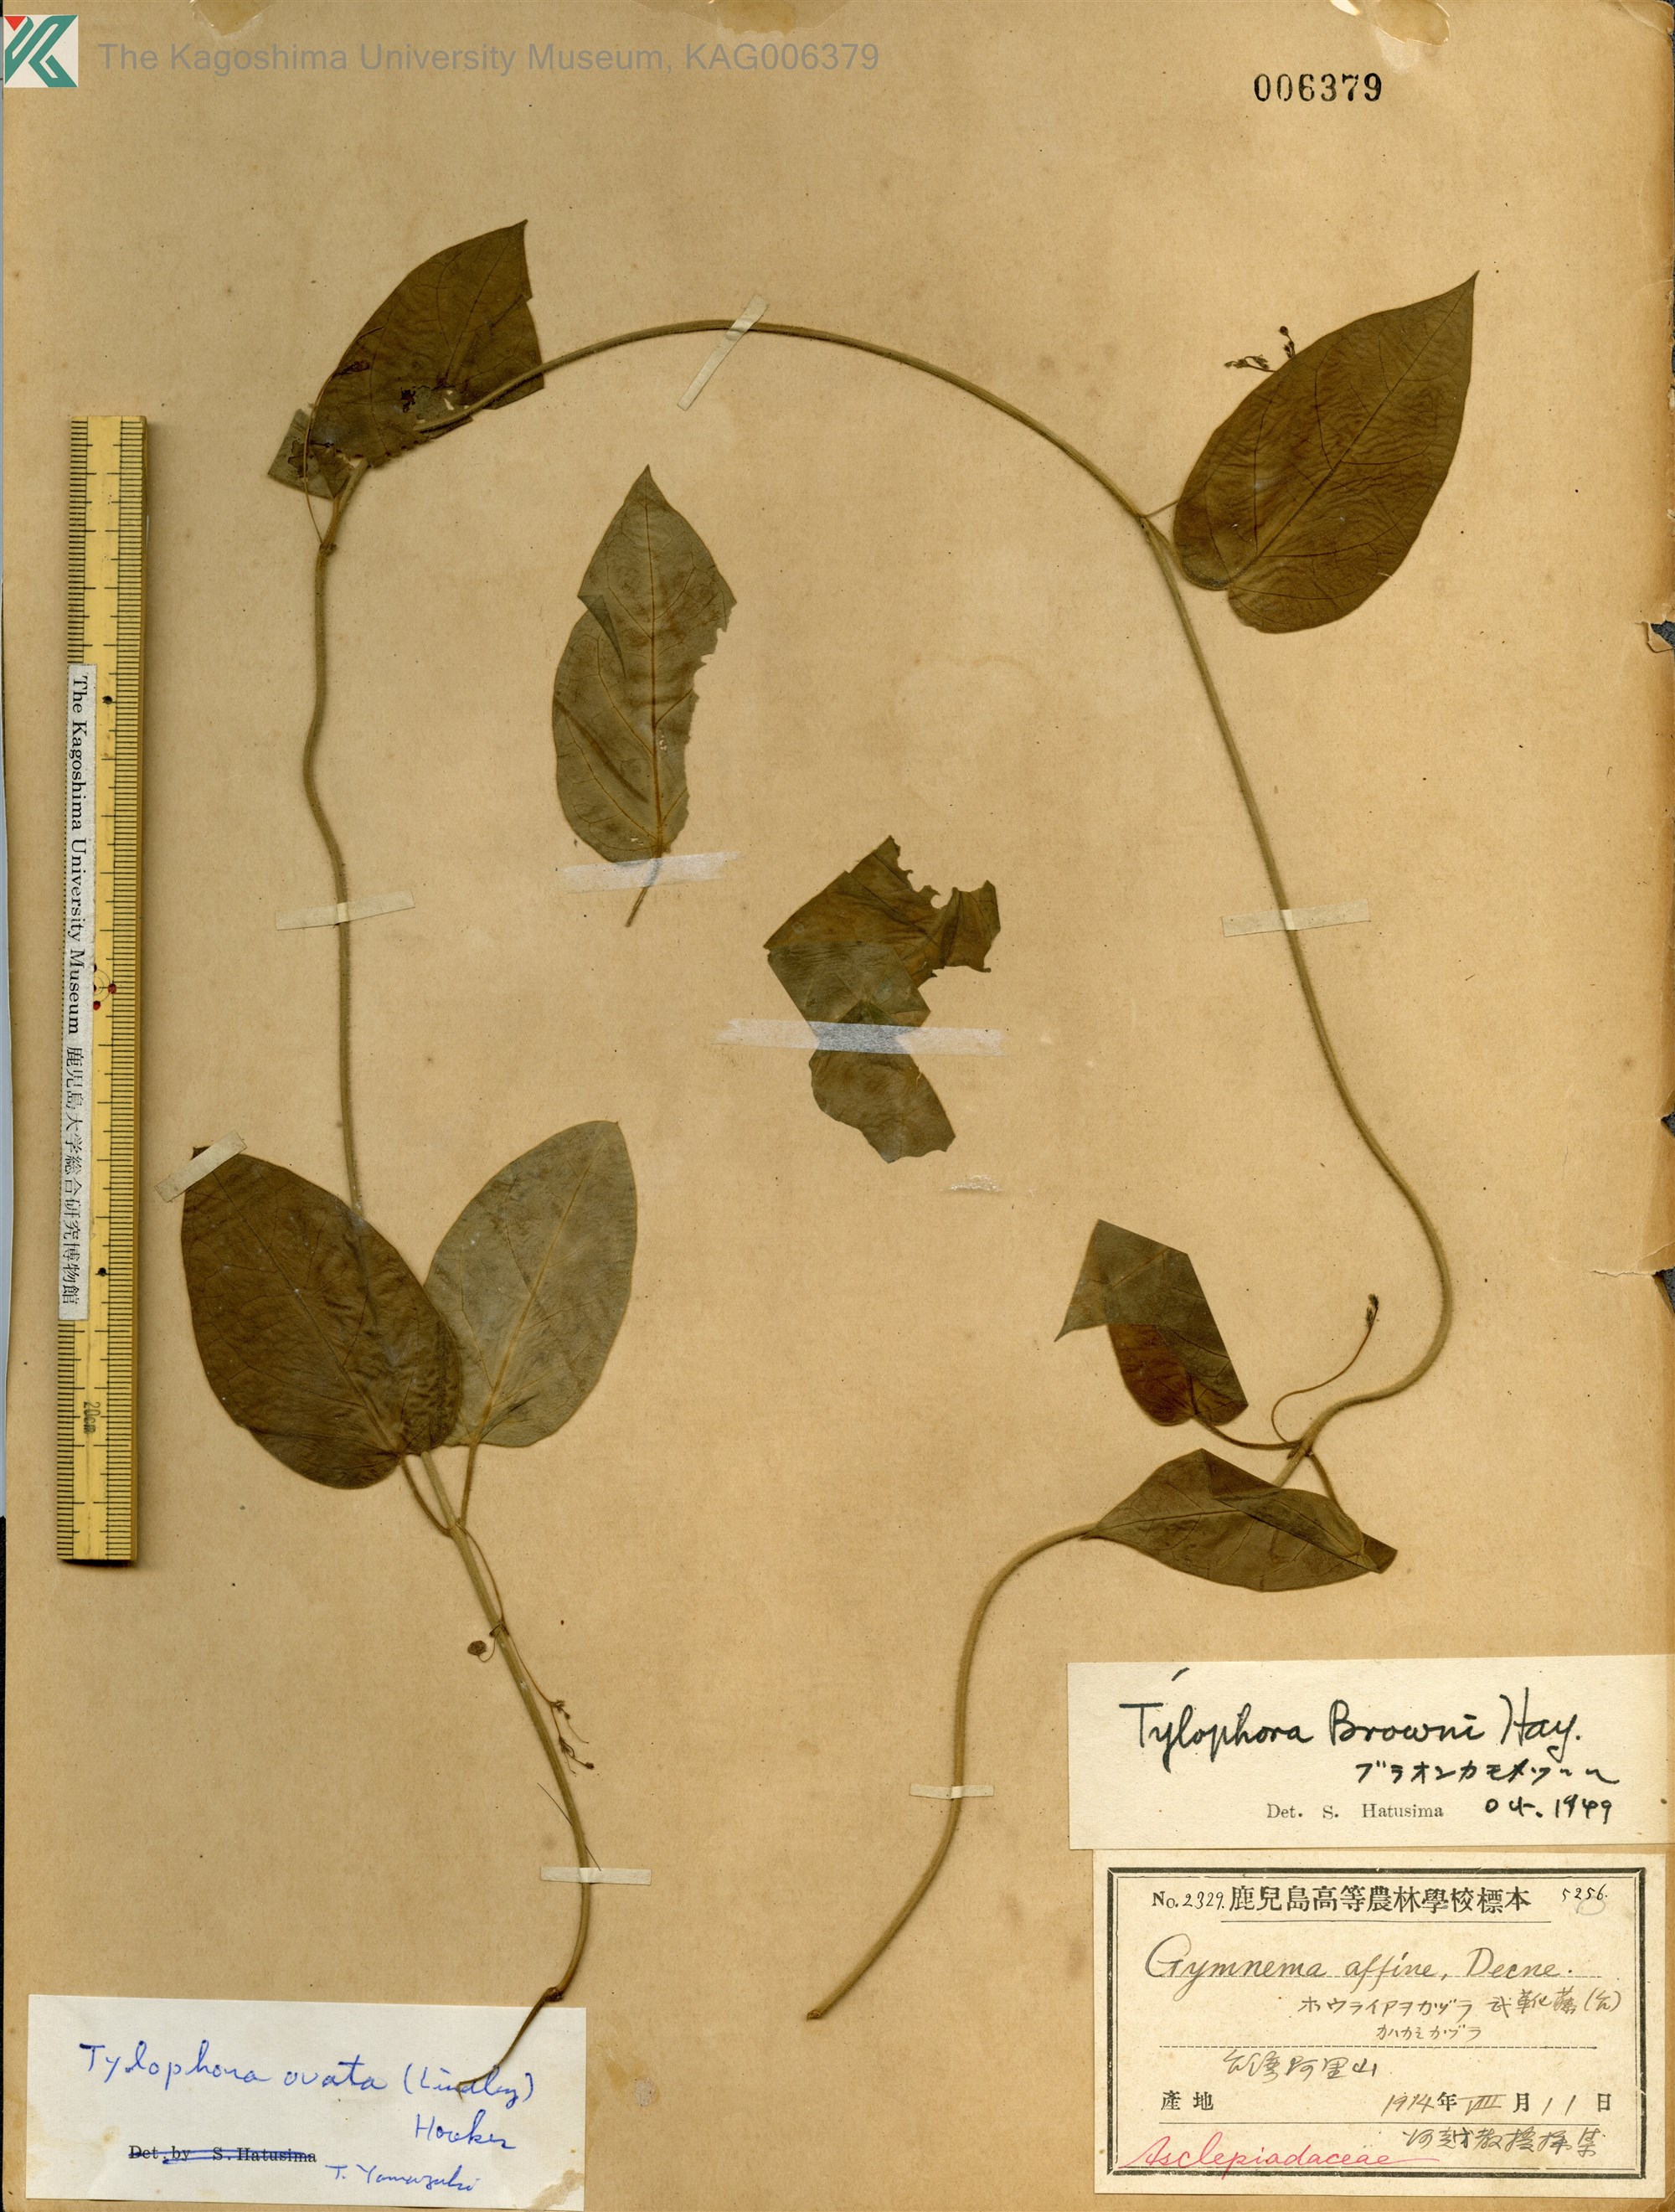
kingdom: Plantae
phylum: Tracheophyta
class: Magnoliopsida
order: Gentianales
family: Apocynaceae
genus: Vincetoxicum
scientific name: Vincetoxicum hirsutum
